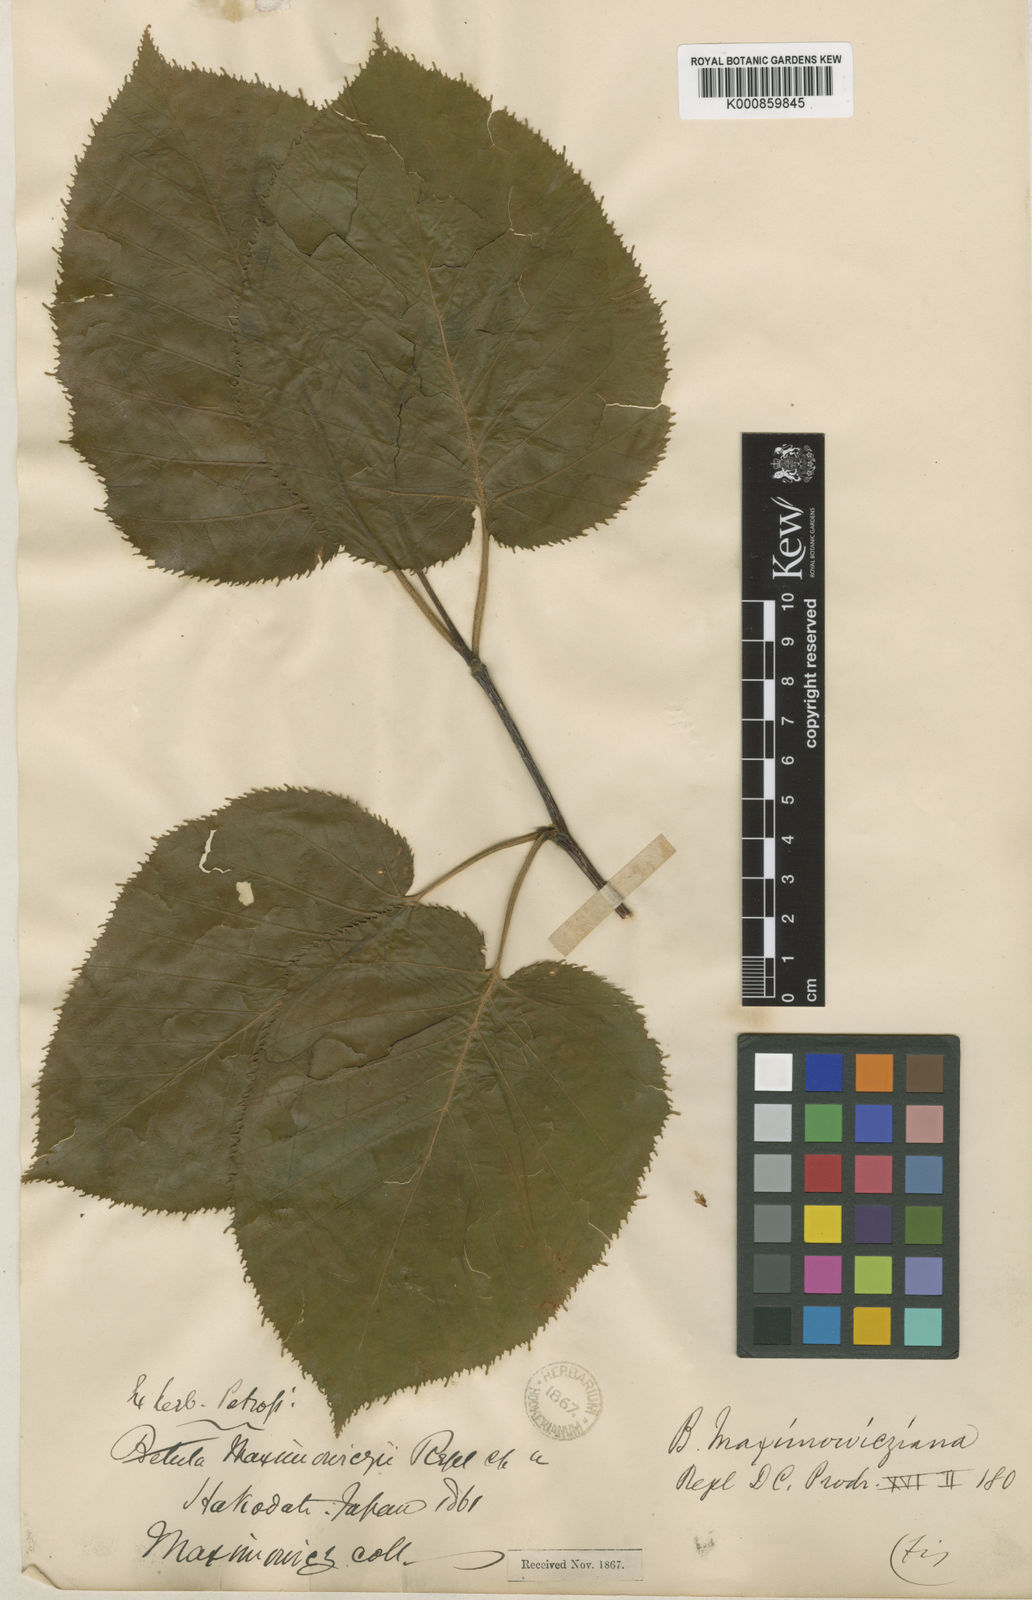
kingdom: Plantae
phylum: Tracheophyta
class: Magnoliopsida
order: Fagales
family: Betulaceae
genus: Betula
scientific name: Betula maximowicziana
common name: Monarch birch
